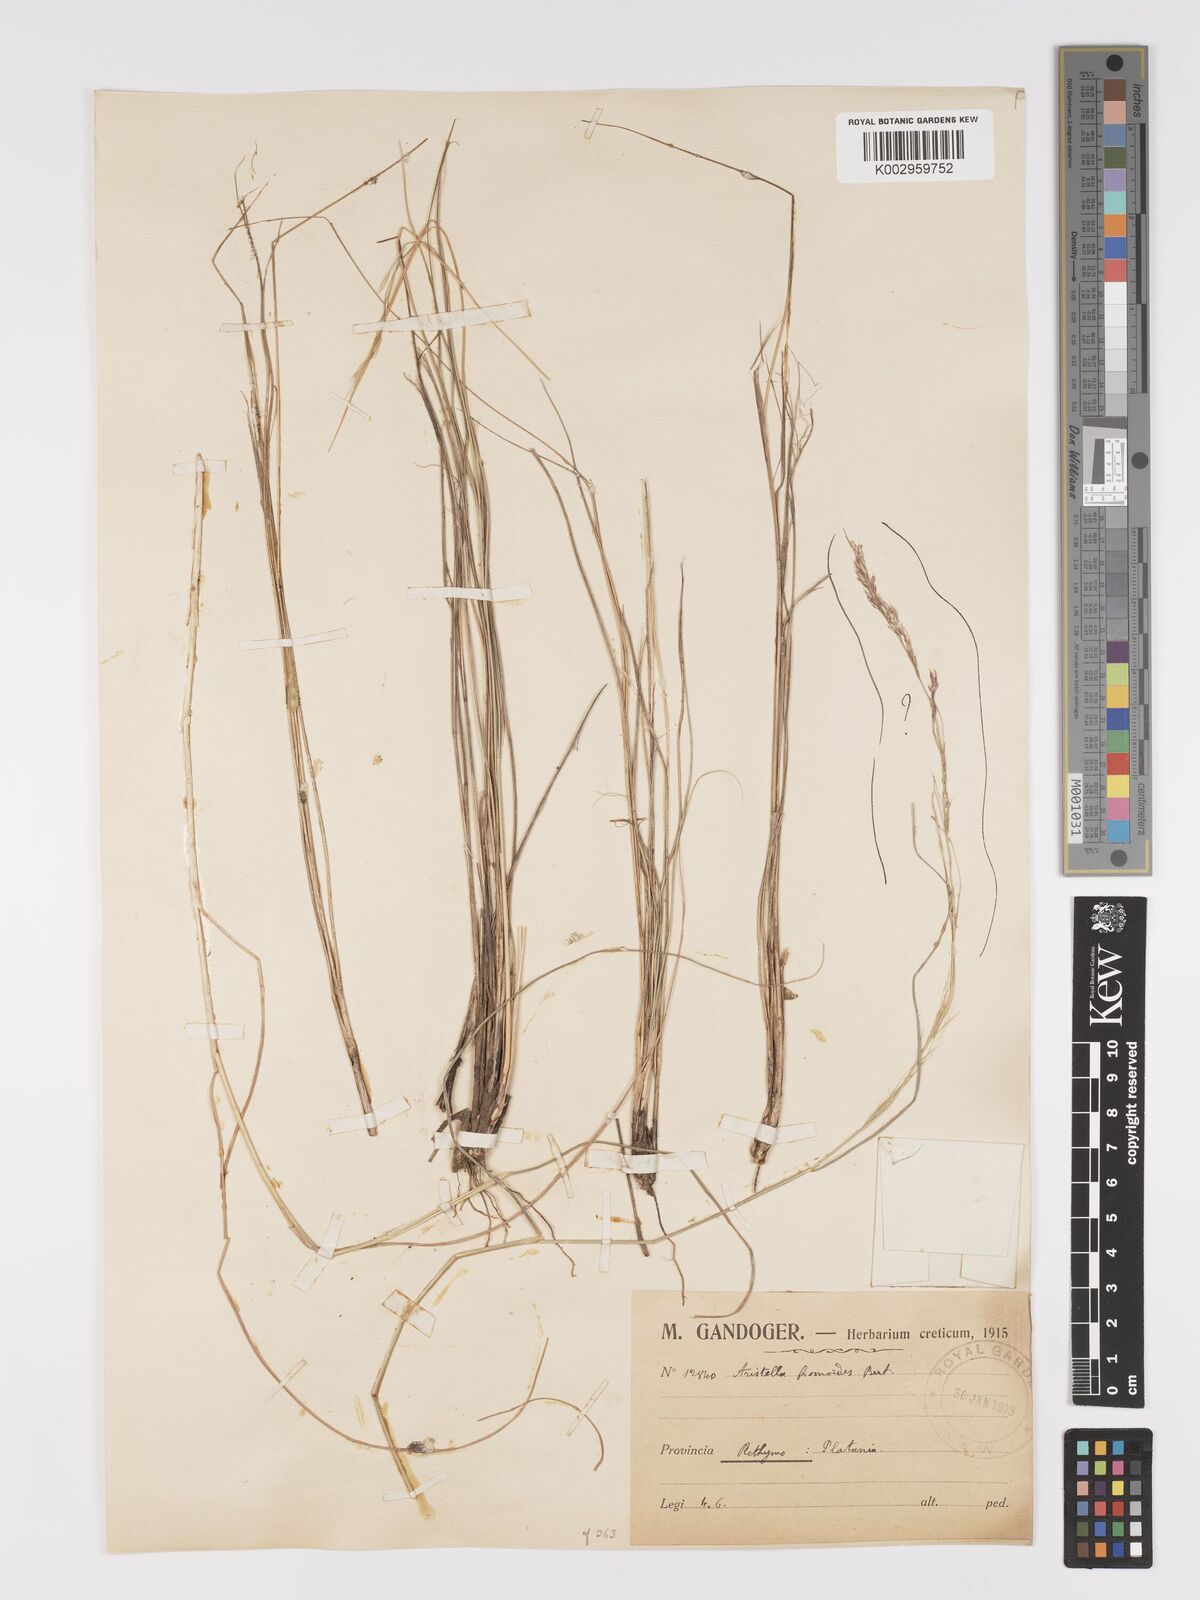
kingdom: Plantae
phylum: Tracheophyta
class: Liliopsida
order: Poales
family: Poaceae
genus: Achnatherum
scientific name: Achnatherum bromoides
